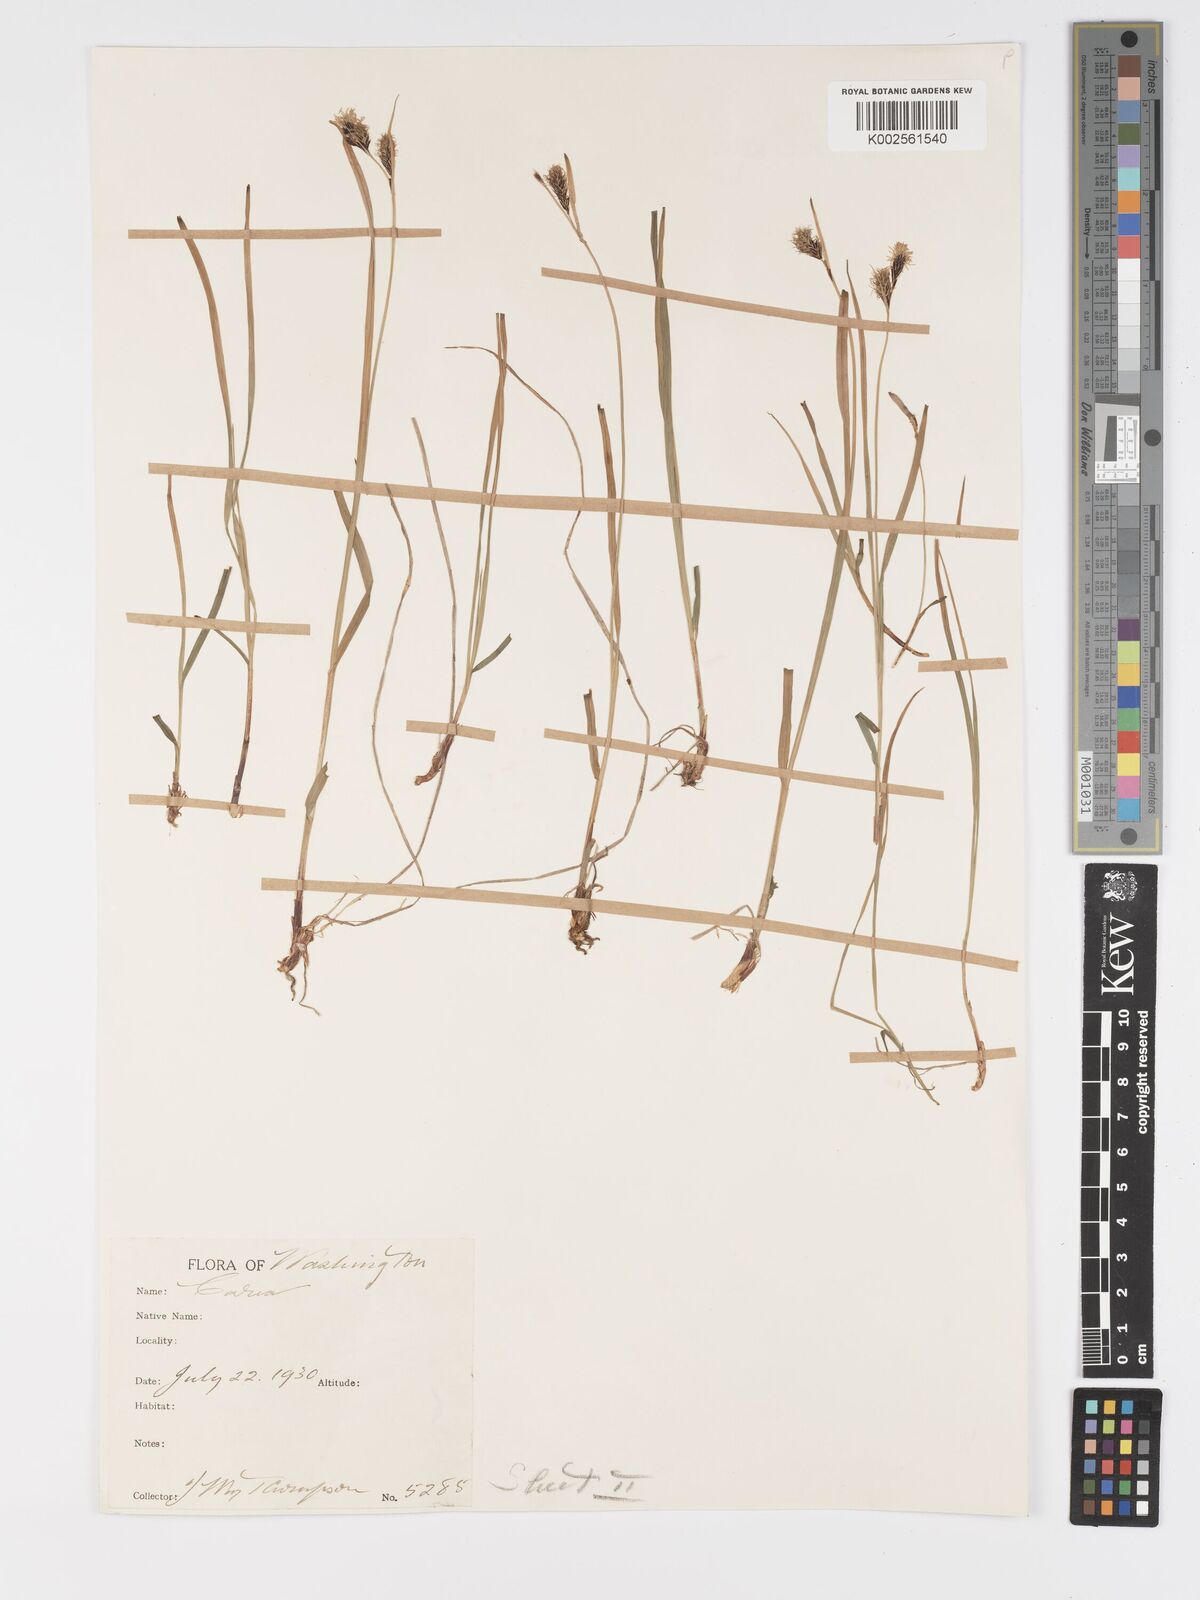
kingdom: Plantae
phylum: Tracheophyta
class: Liliopsida
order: Poales
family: Cyperaceae
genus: Carex
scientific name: Carex spectabilis
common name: Northwestern showy sedge
